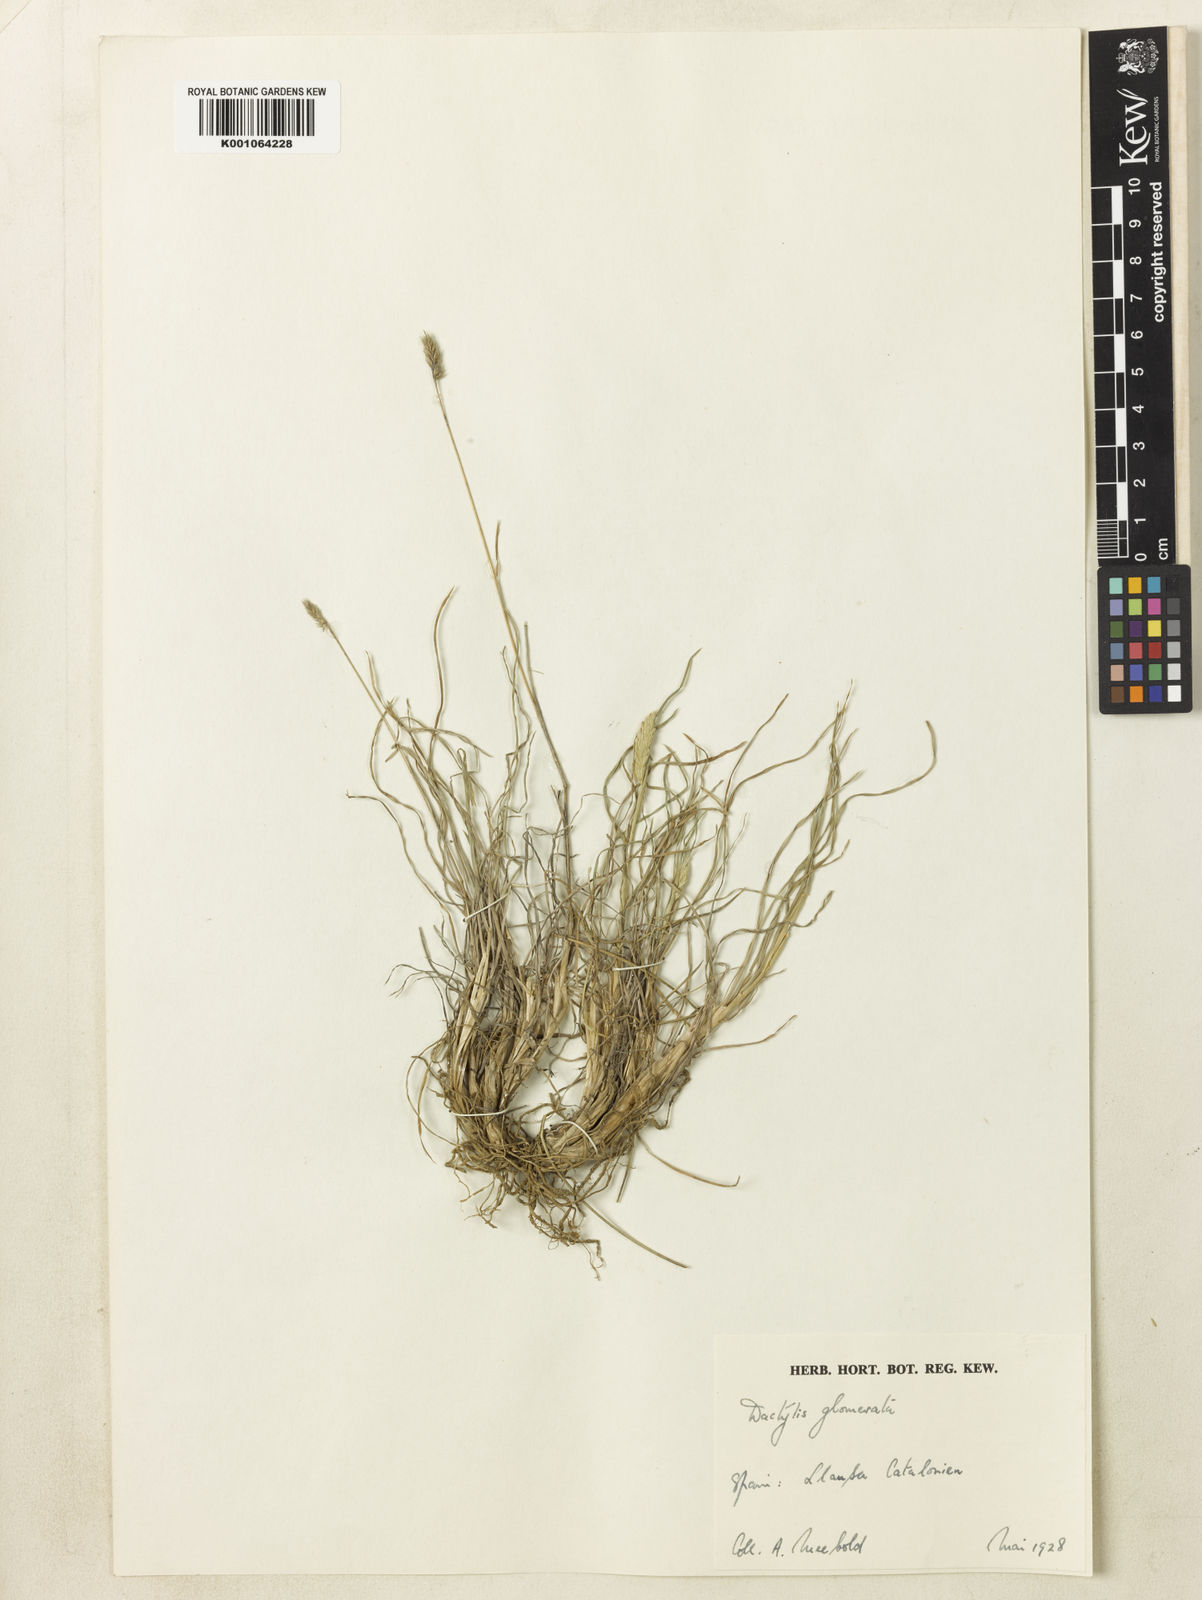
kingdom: Plantae
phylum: Tracheophyta
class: Liliopsida
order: Poales
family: Poaceae
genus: Dactylis
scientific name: Dactylis glomerata
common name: Orchardgrass
